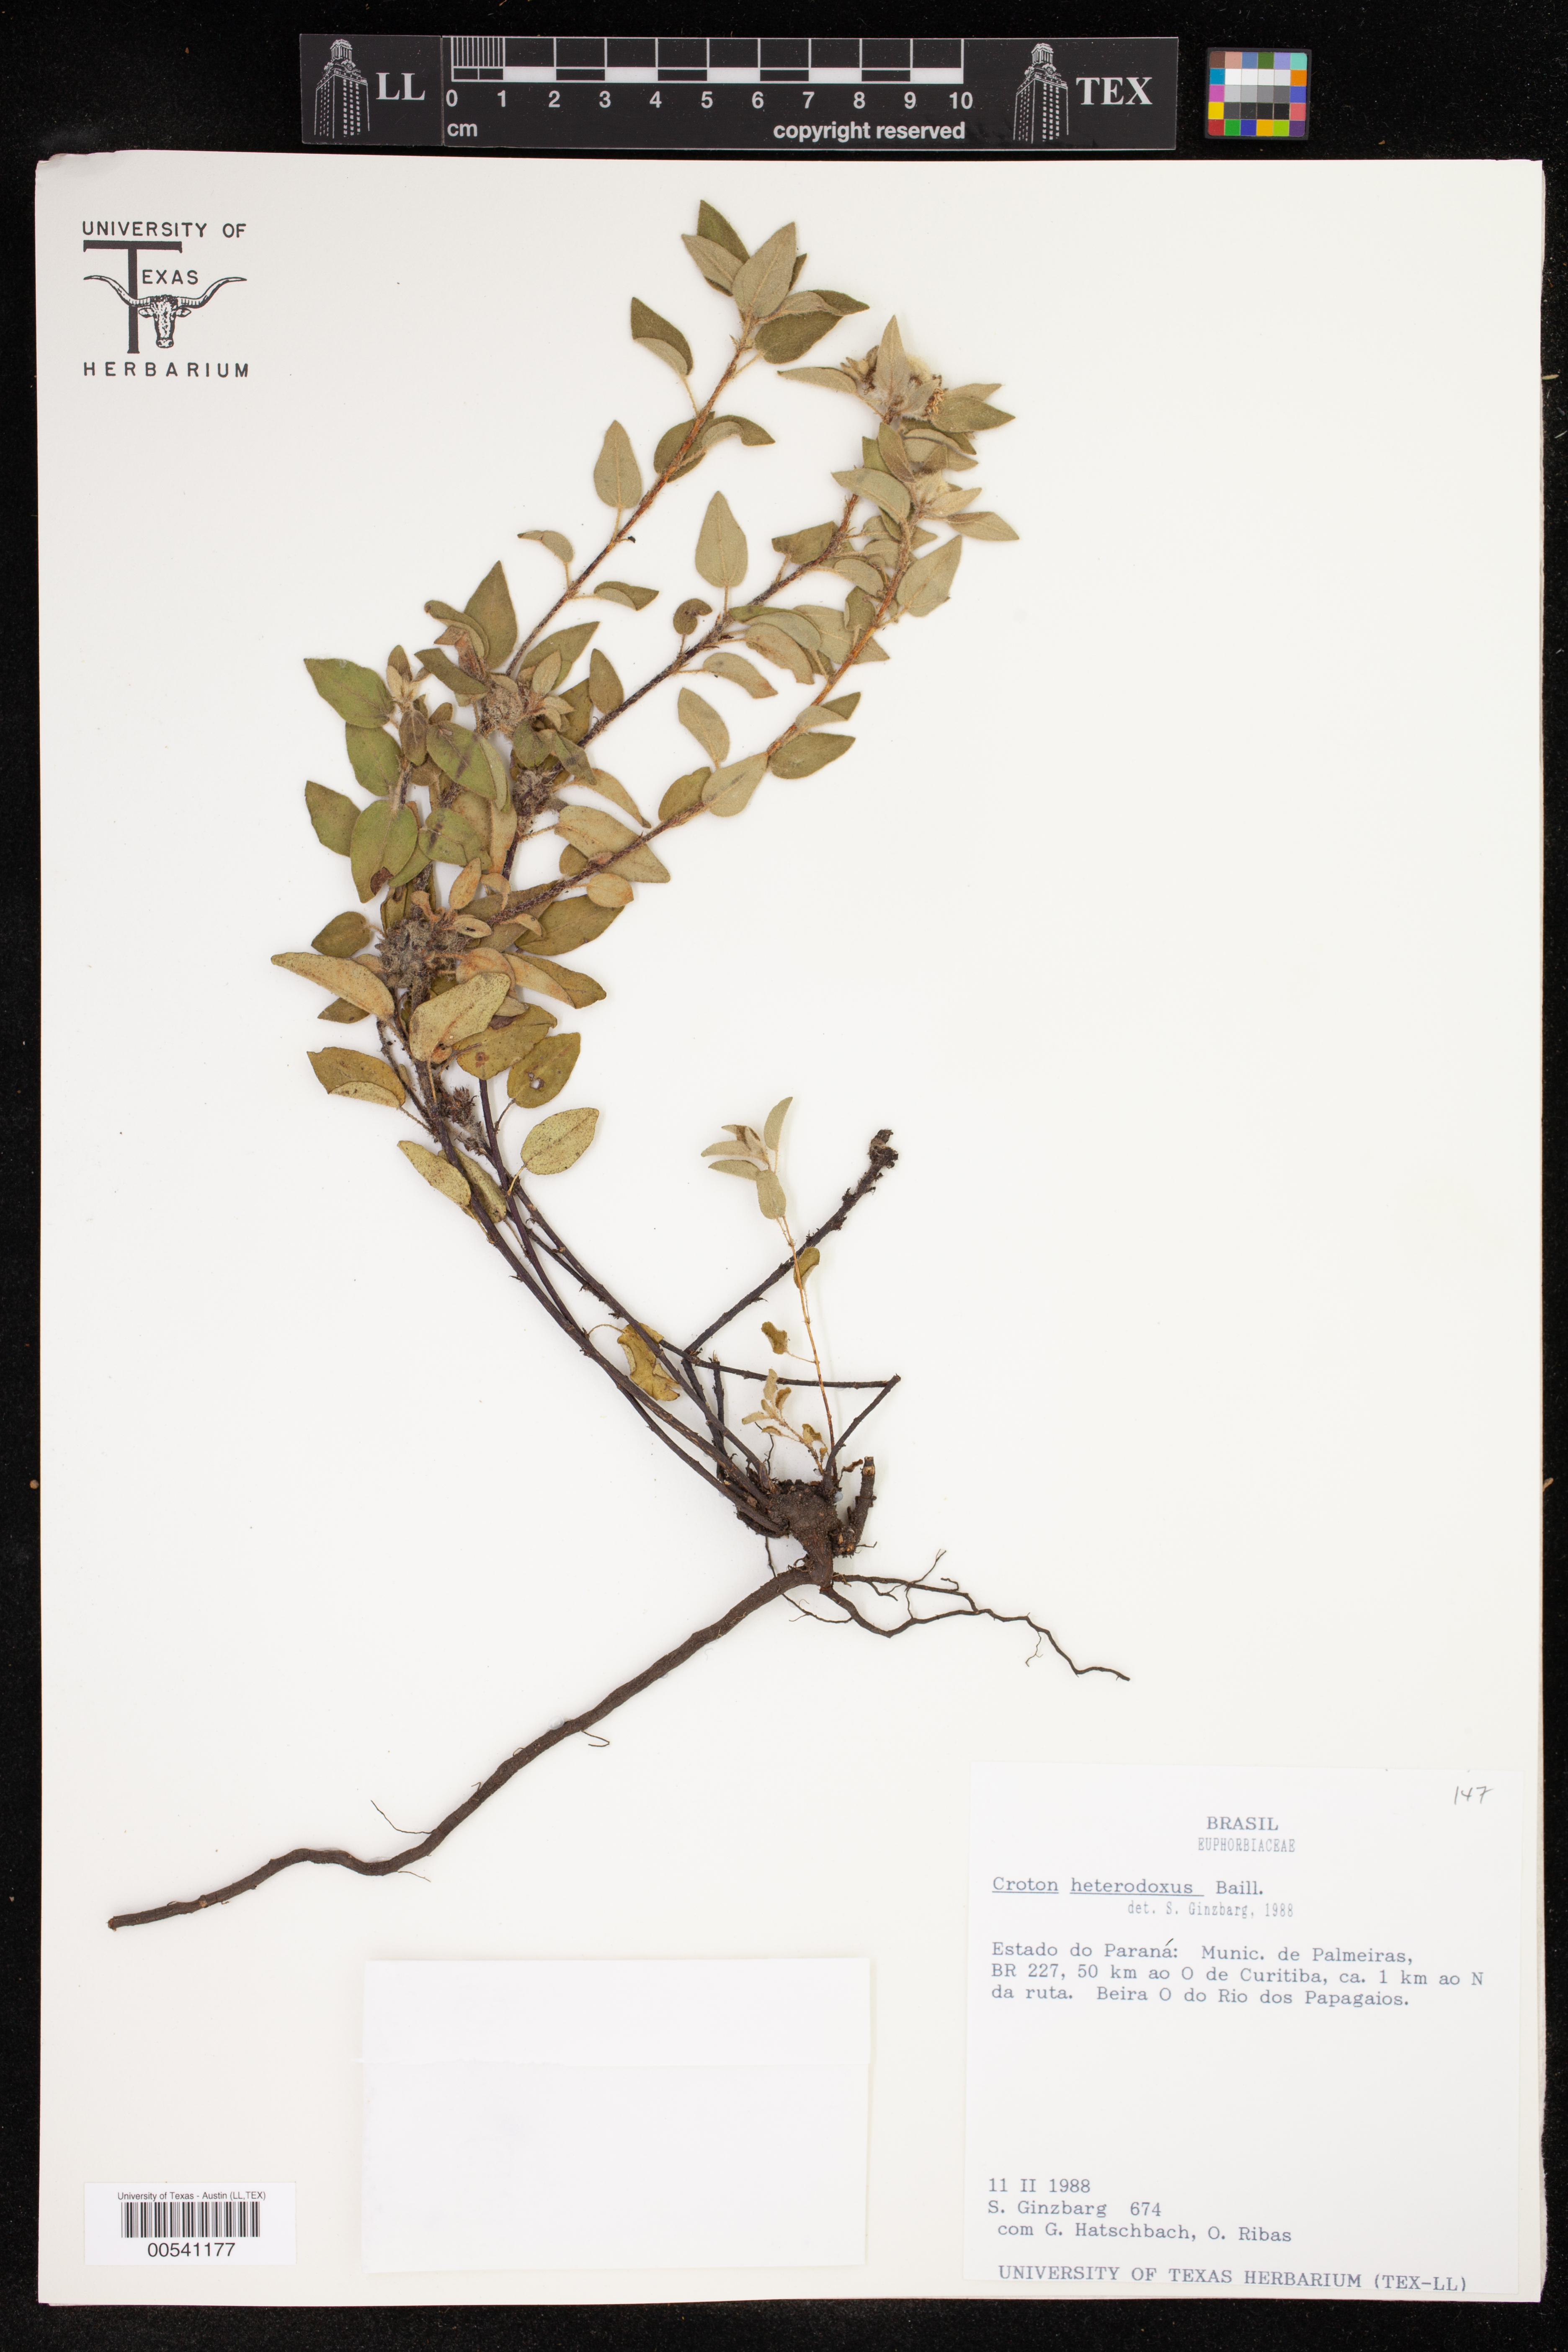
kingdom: Plantae
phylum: Tracheophyta
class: Magnoliopsida
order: Malpighiales
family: Euphorbiaceae
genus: Croton
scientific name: Croton heterodoxus
